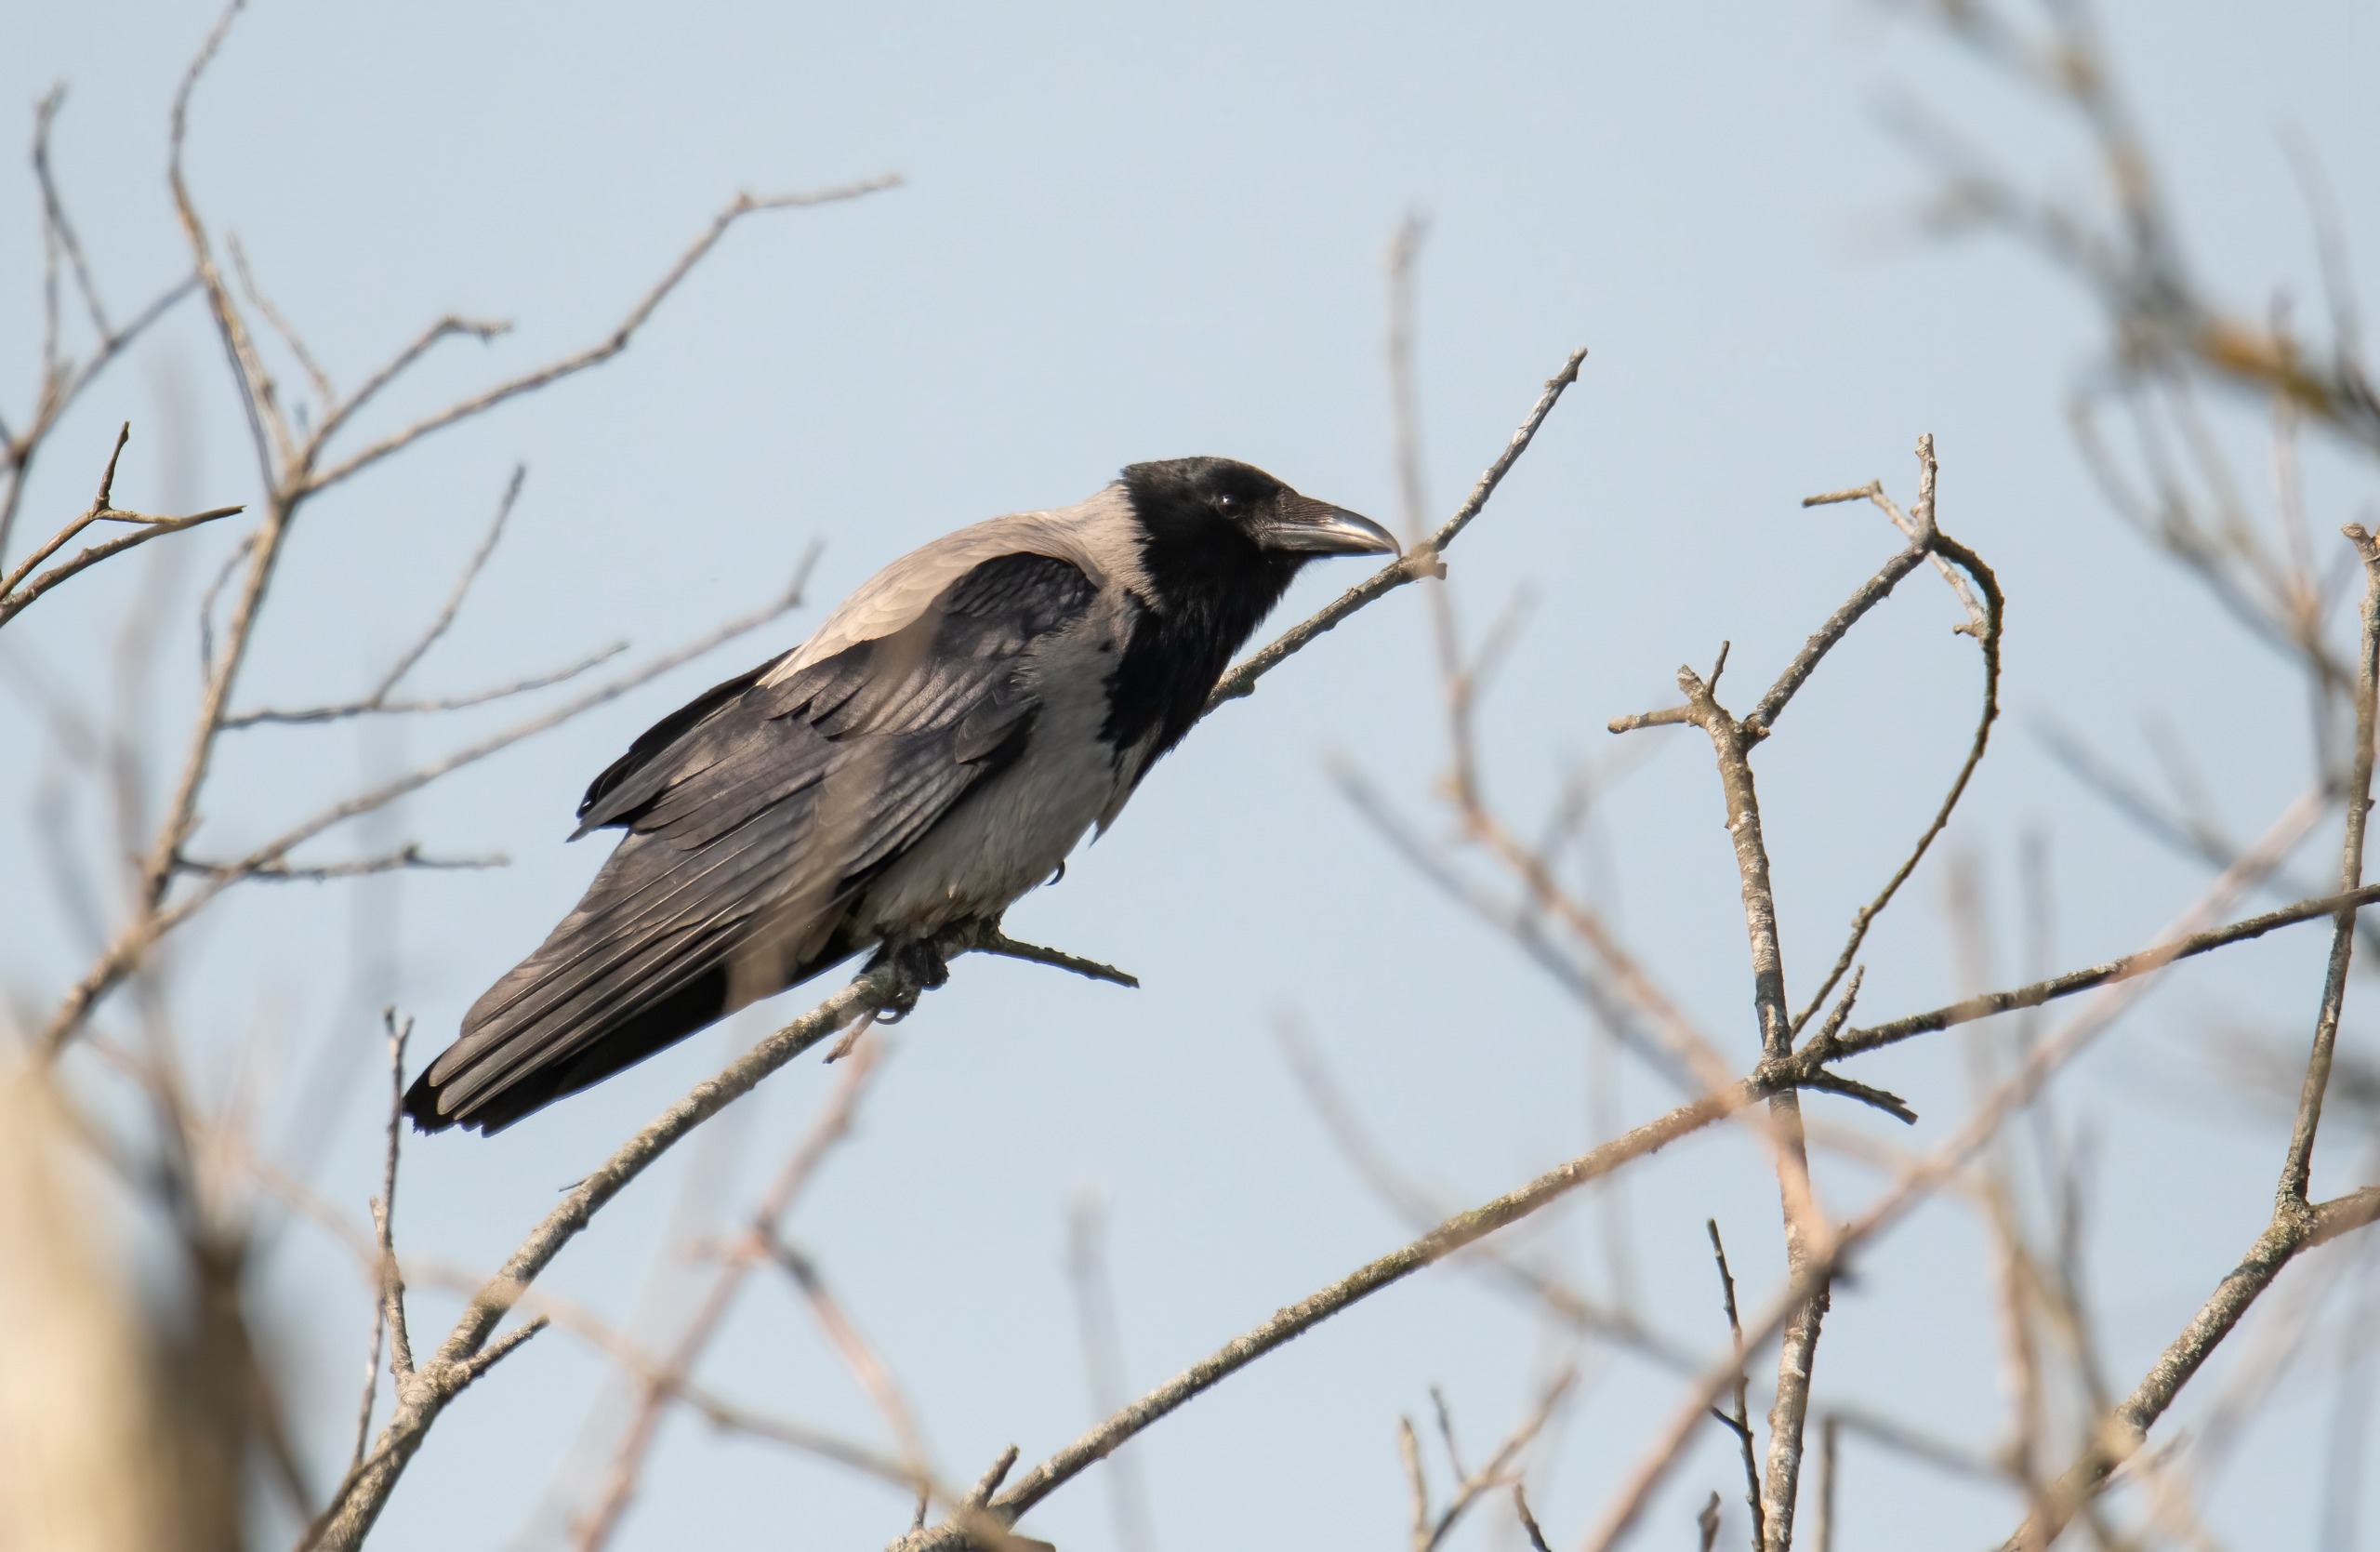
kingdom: Animalia
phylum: Chordata
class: Aves
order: Passeriformes
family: Corvidae
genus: Corvus
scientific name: Corvus cornix
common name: Gråkrage
